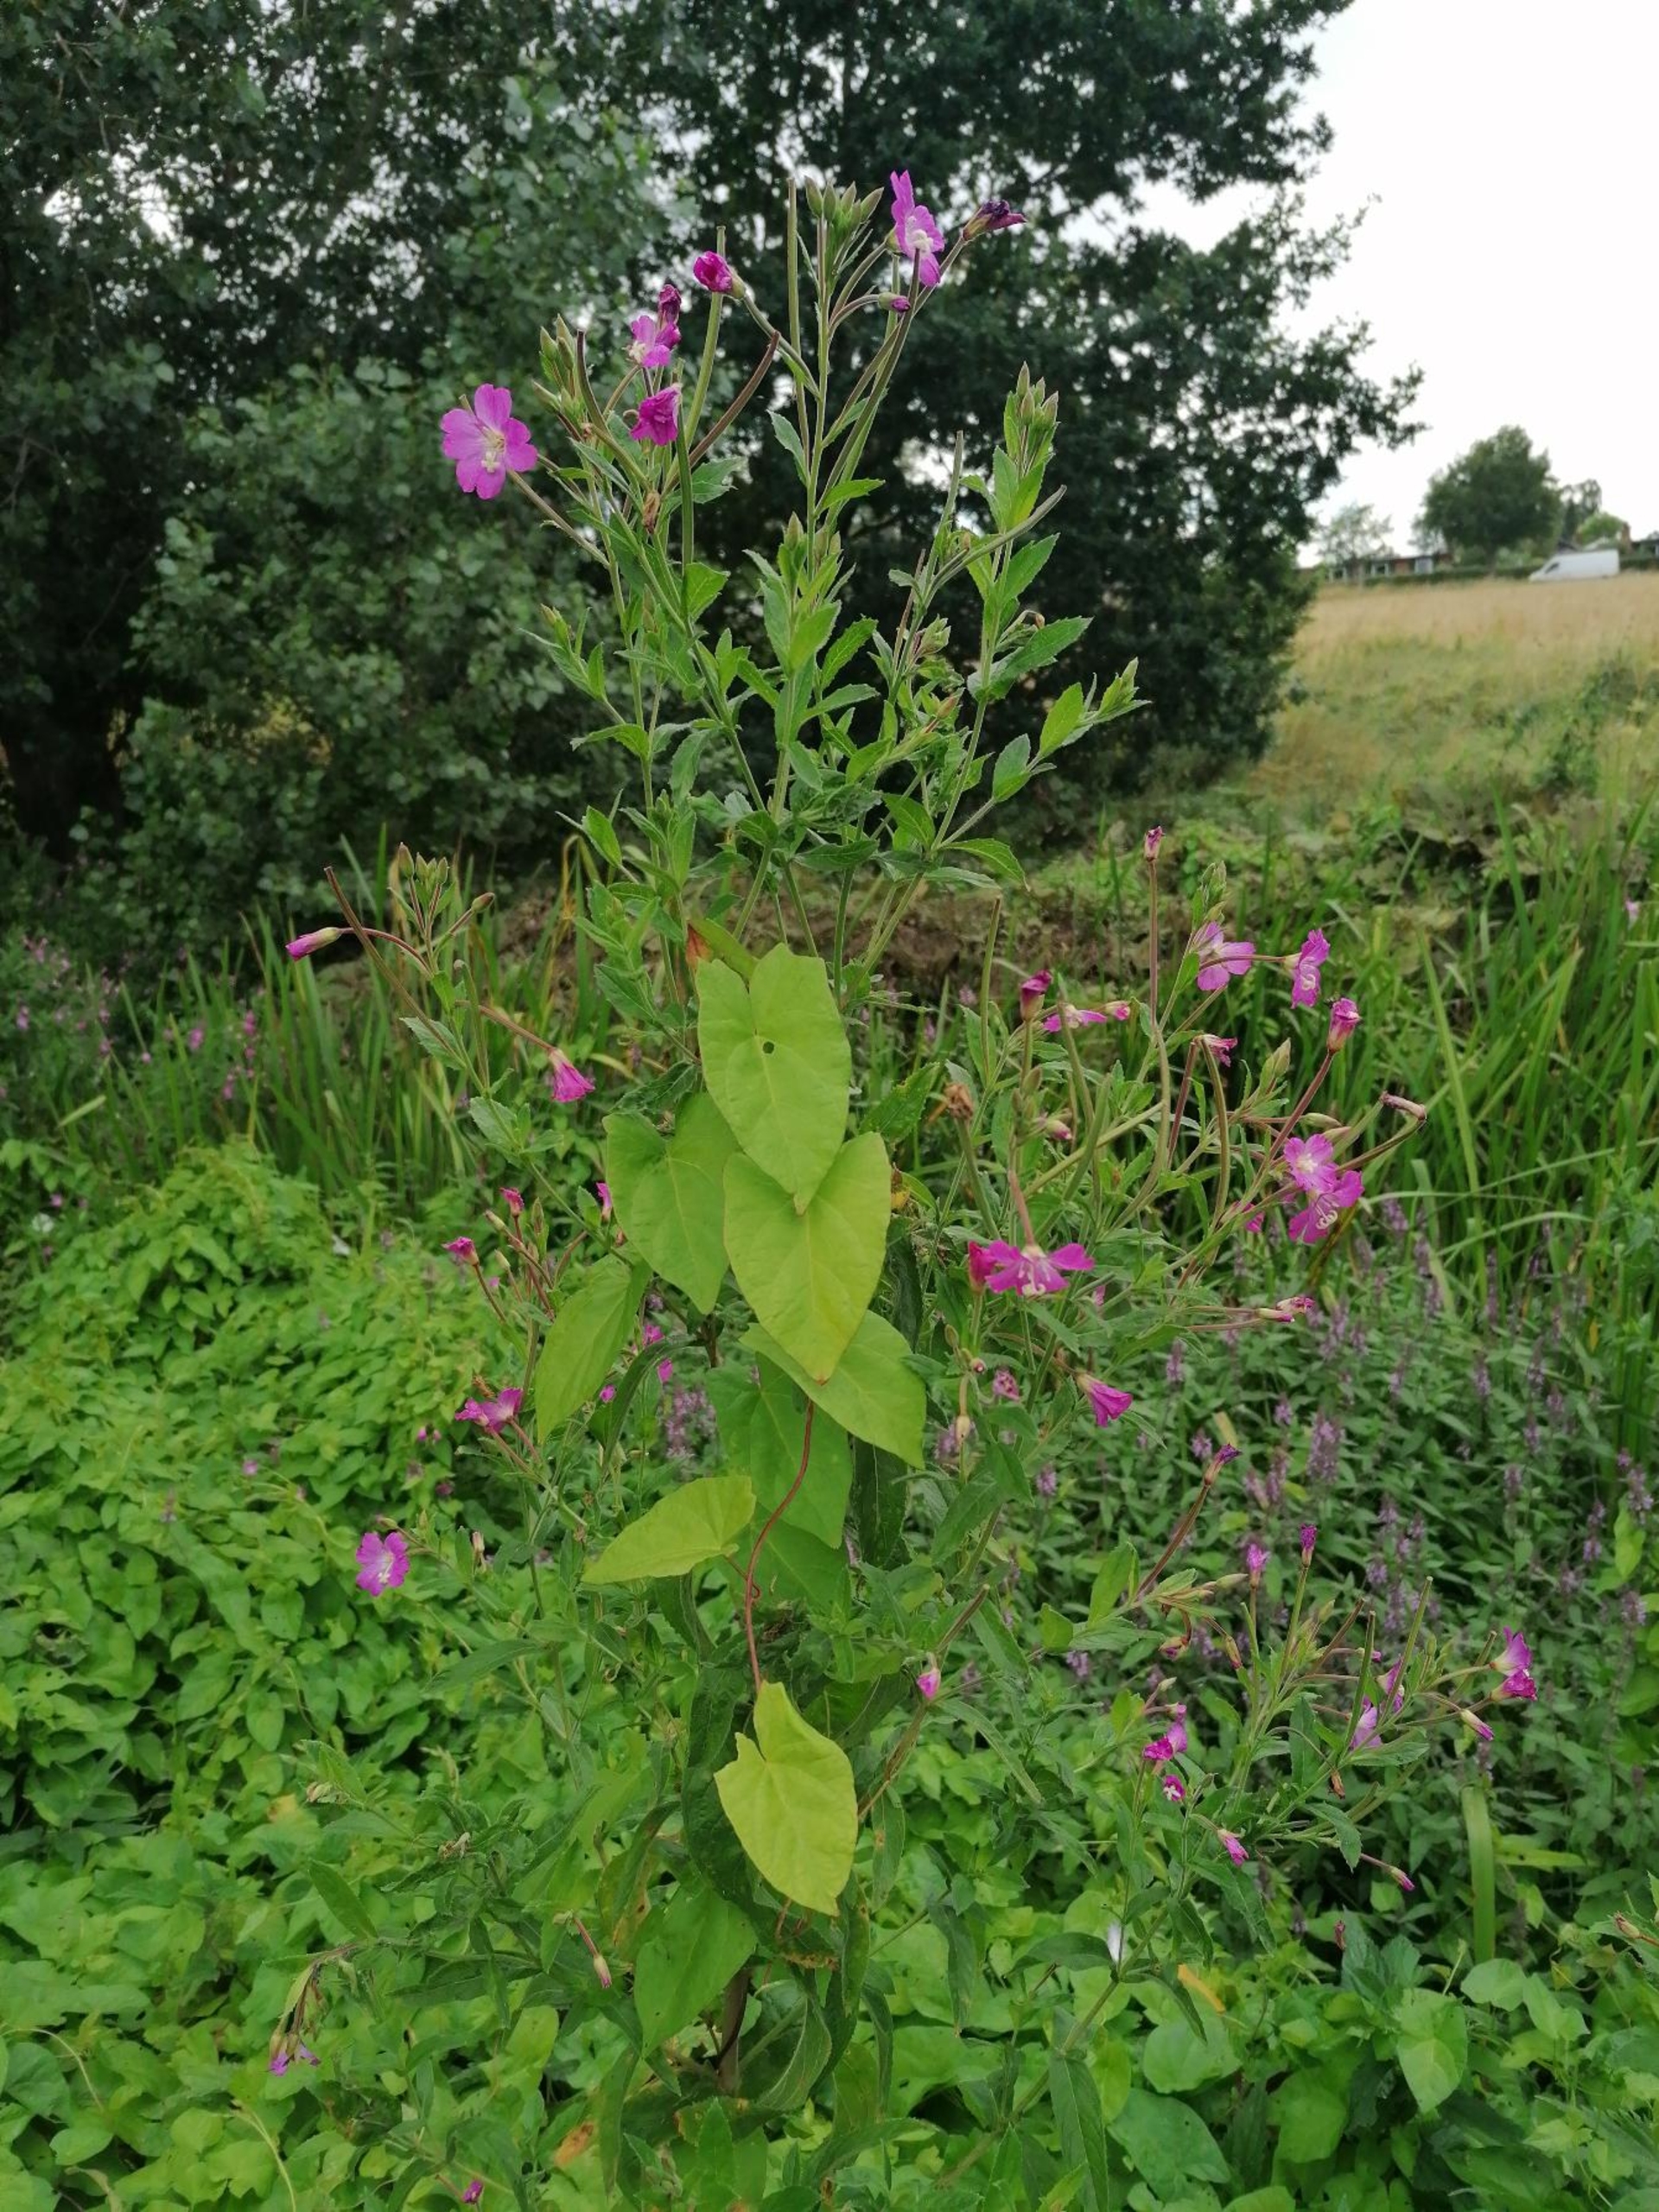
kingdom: Plantae
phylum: Tracheophyta
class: Magnoliopsida
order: Myrtales
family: Onagraceae
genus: Epilobium
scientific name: Epilobium hirsutum
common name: Lådden dueurt
